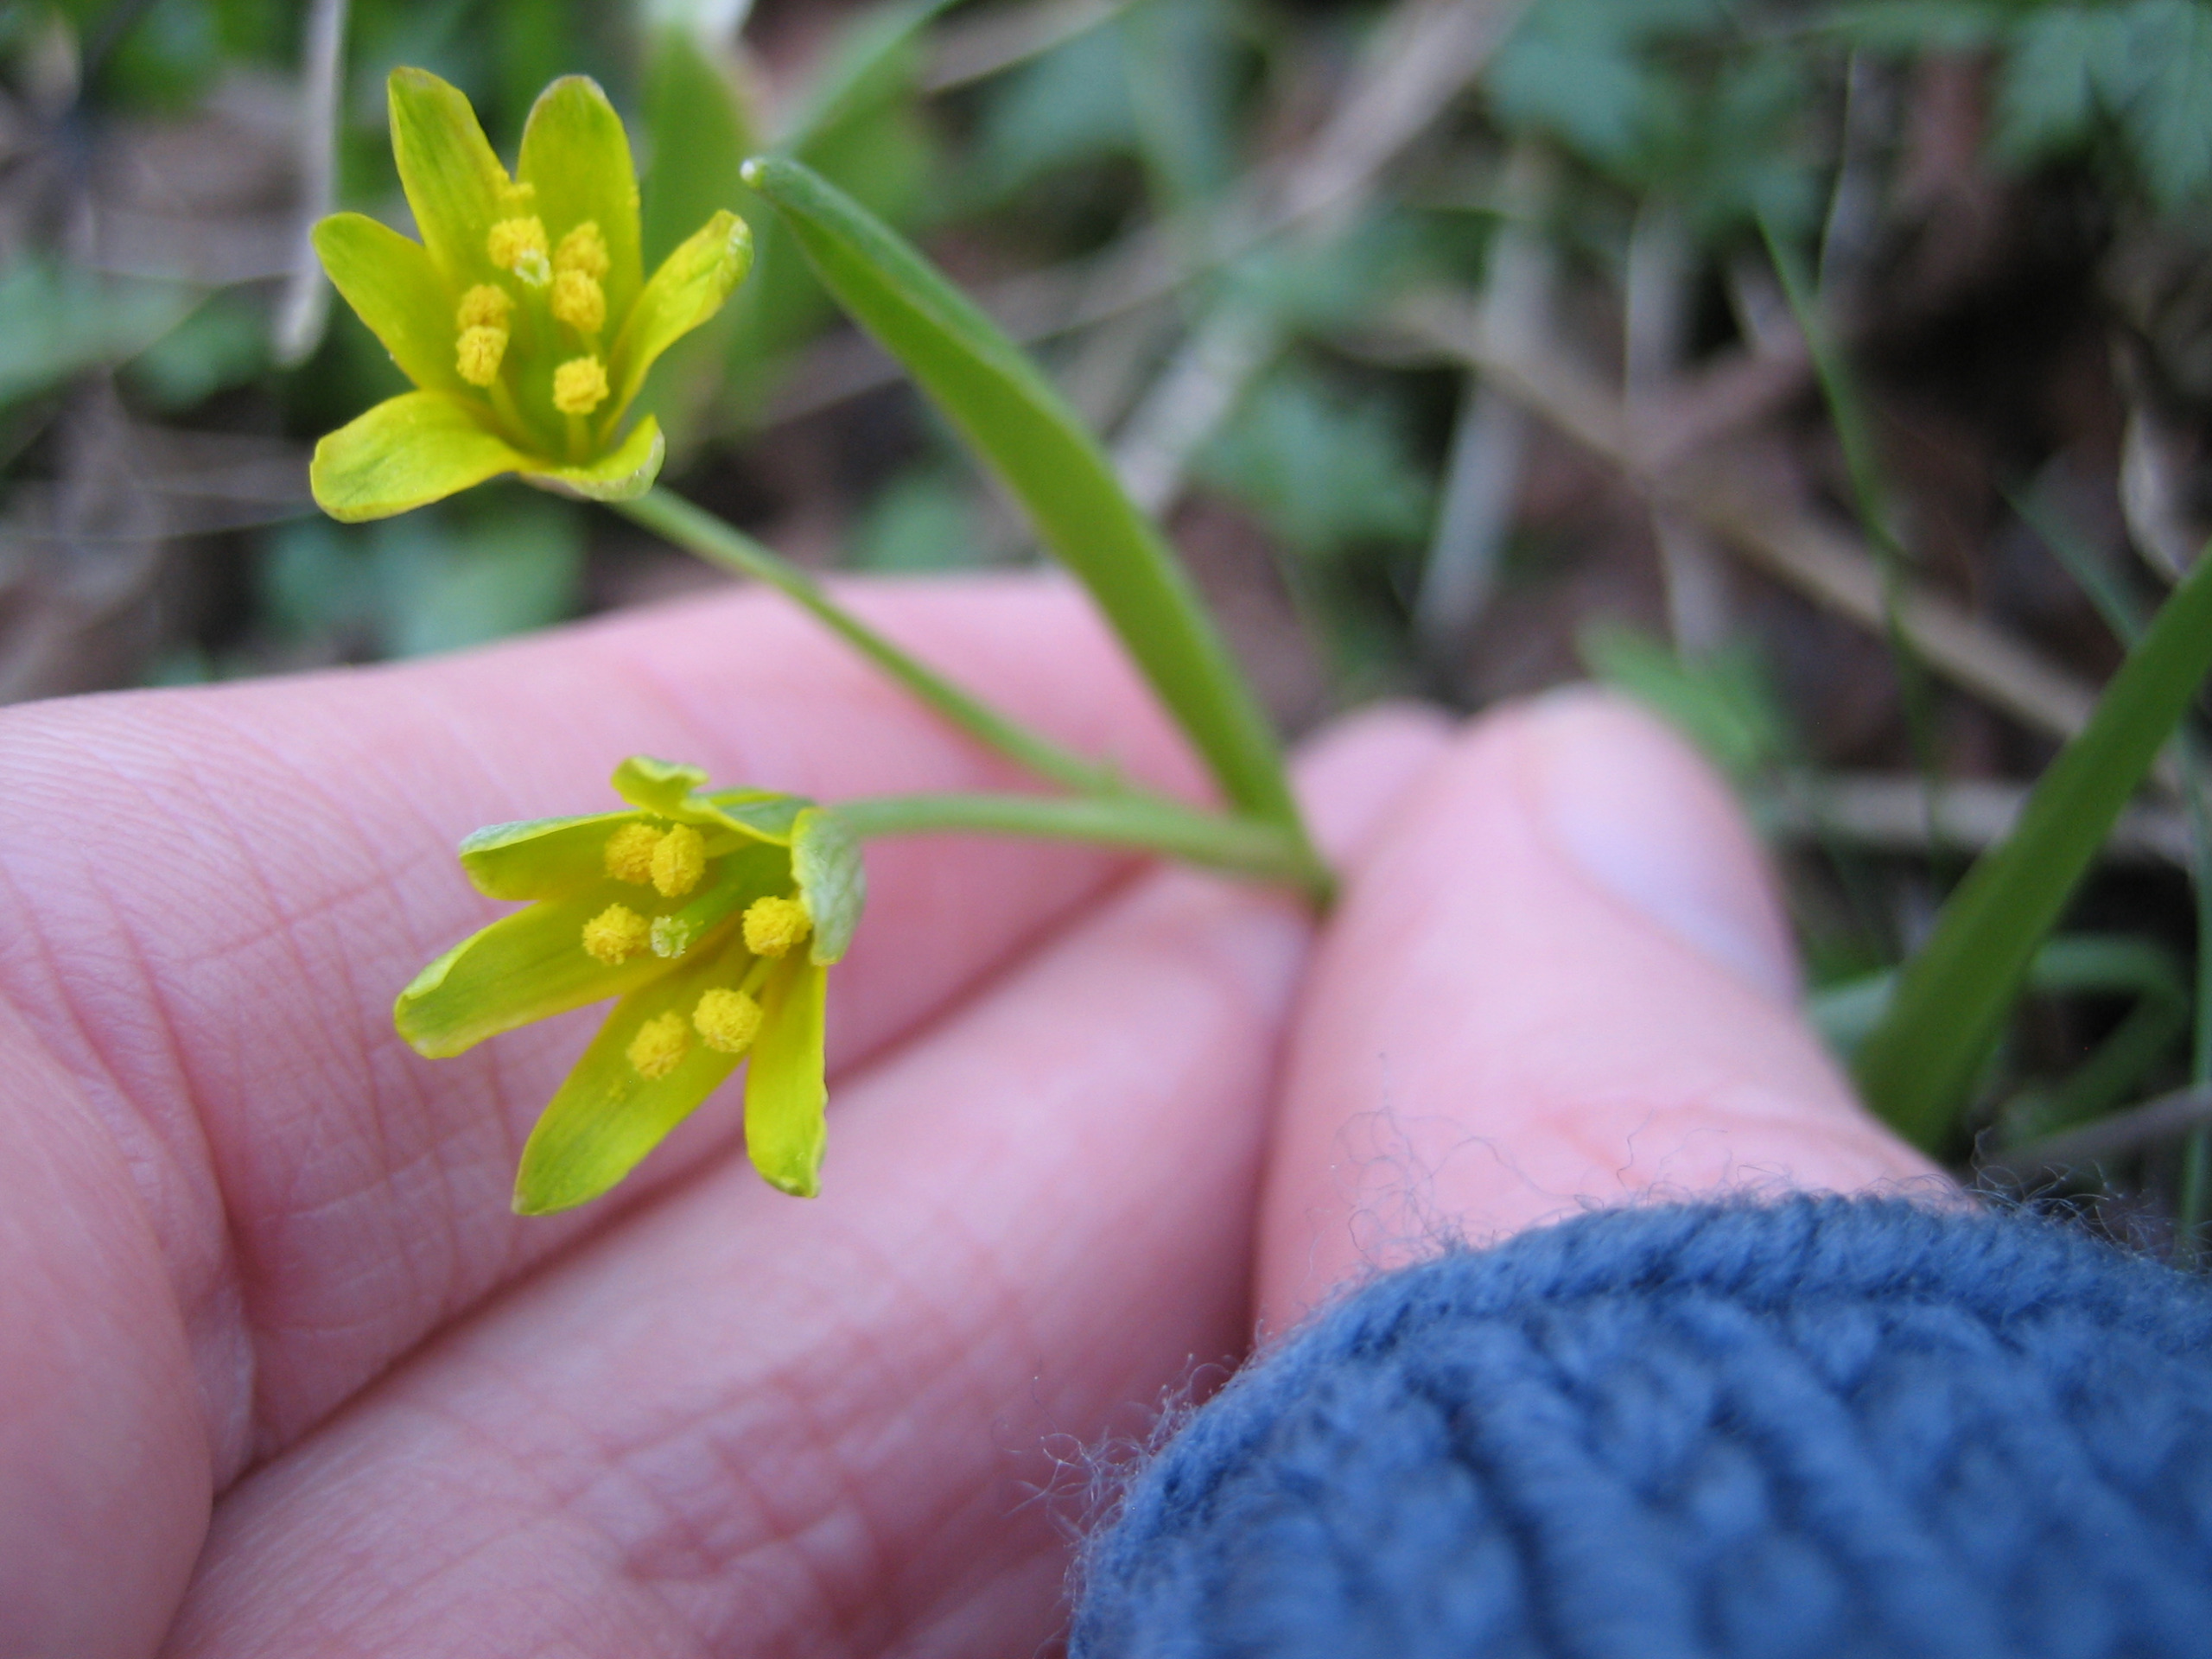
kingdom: Plantae
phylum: Tracheophyta
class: Liliopsida
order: Liliales
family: Liliaceae
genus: Gagea
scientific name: Gagea lutea
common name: Almindelig guldstjerne
